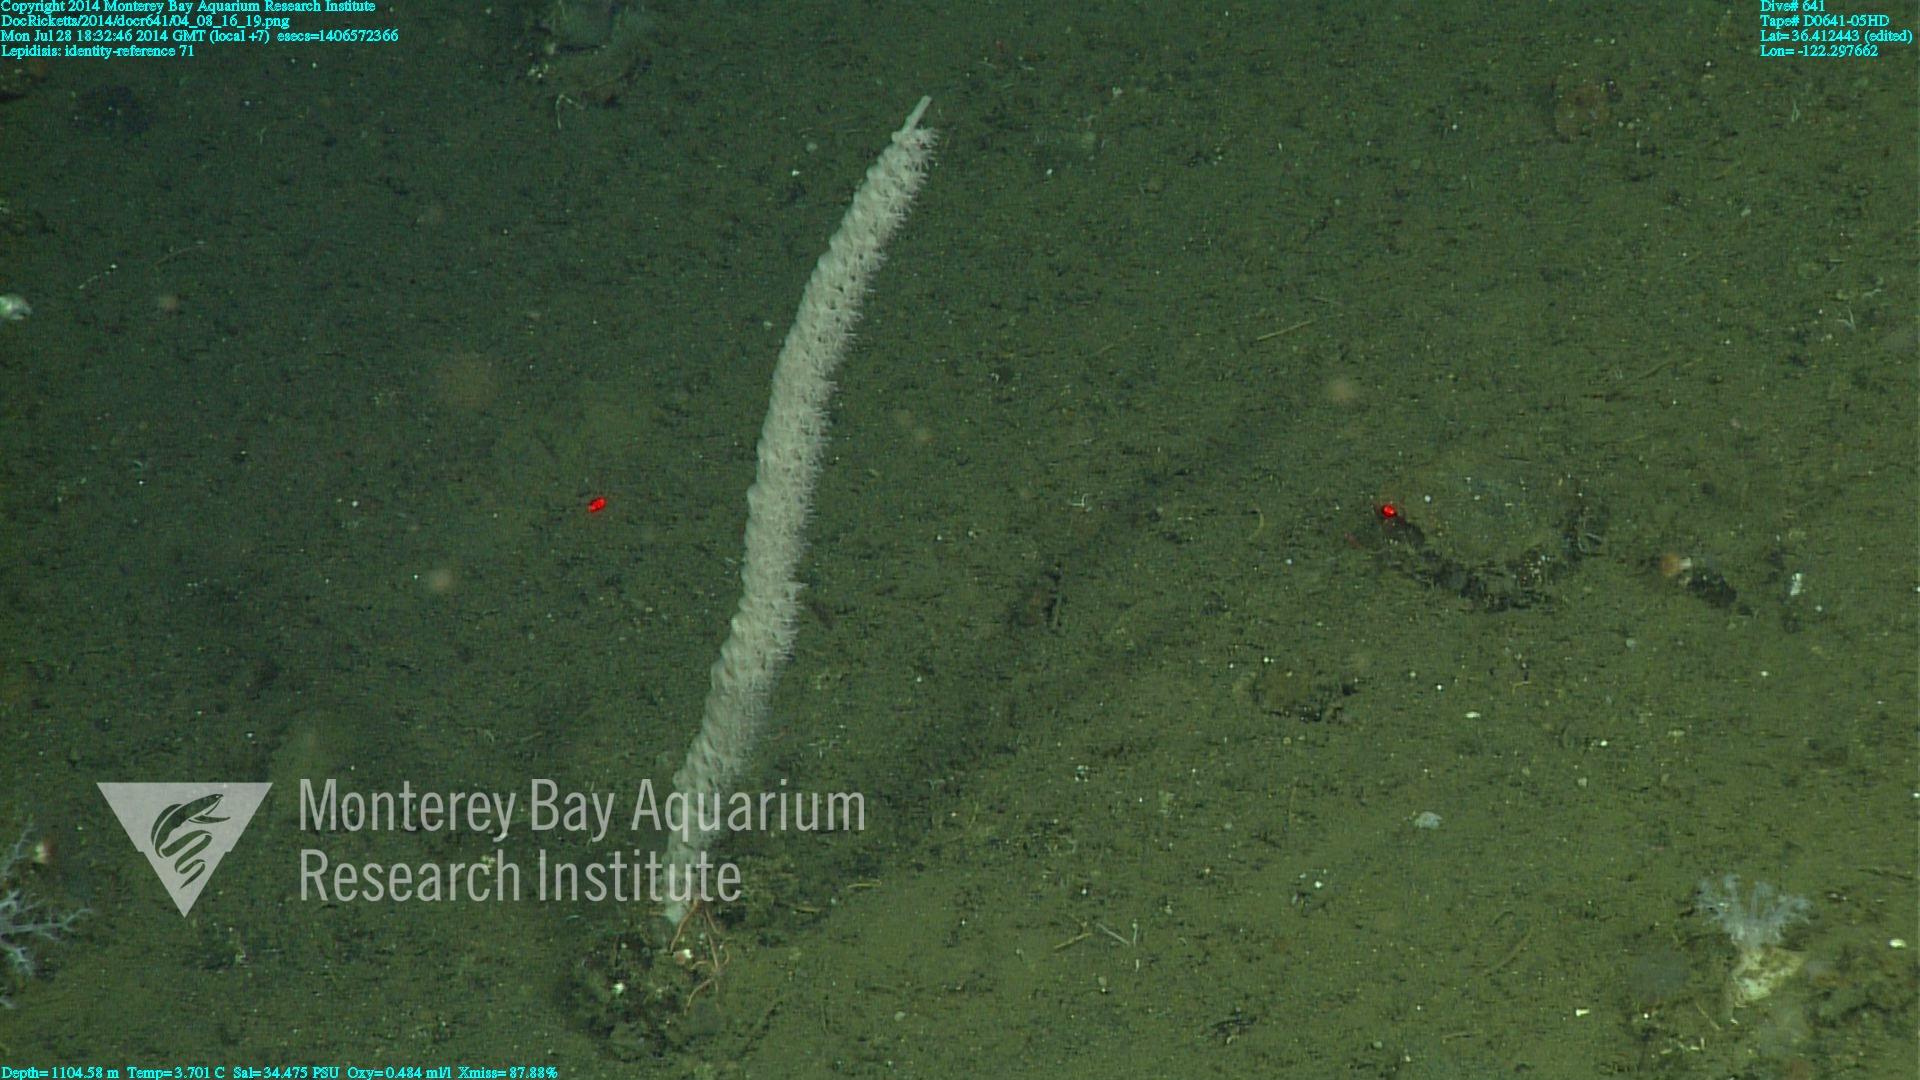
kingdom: Animalia
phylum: Cnidaria
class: Anthozoa
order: Scleralcyonacea
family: Keratoisididae
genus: Lepidisis
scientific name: Lepidisis
